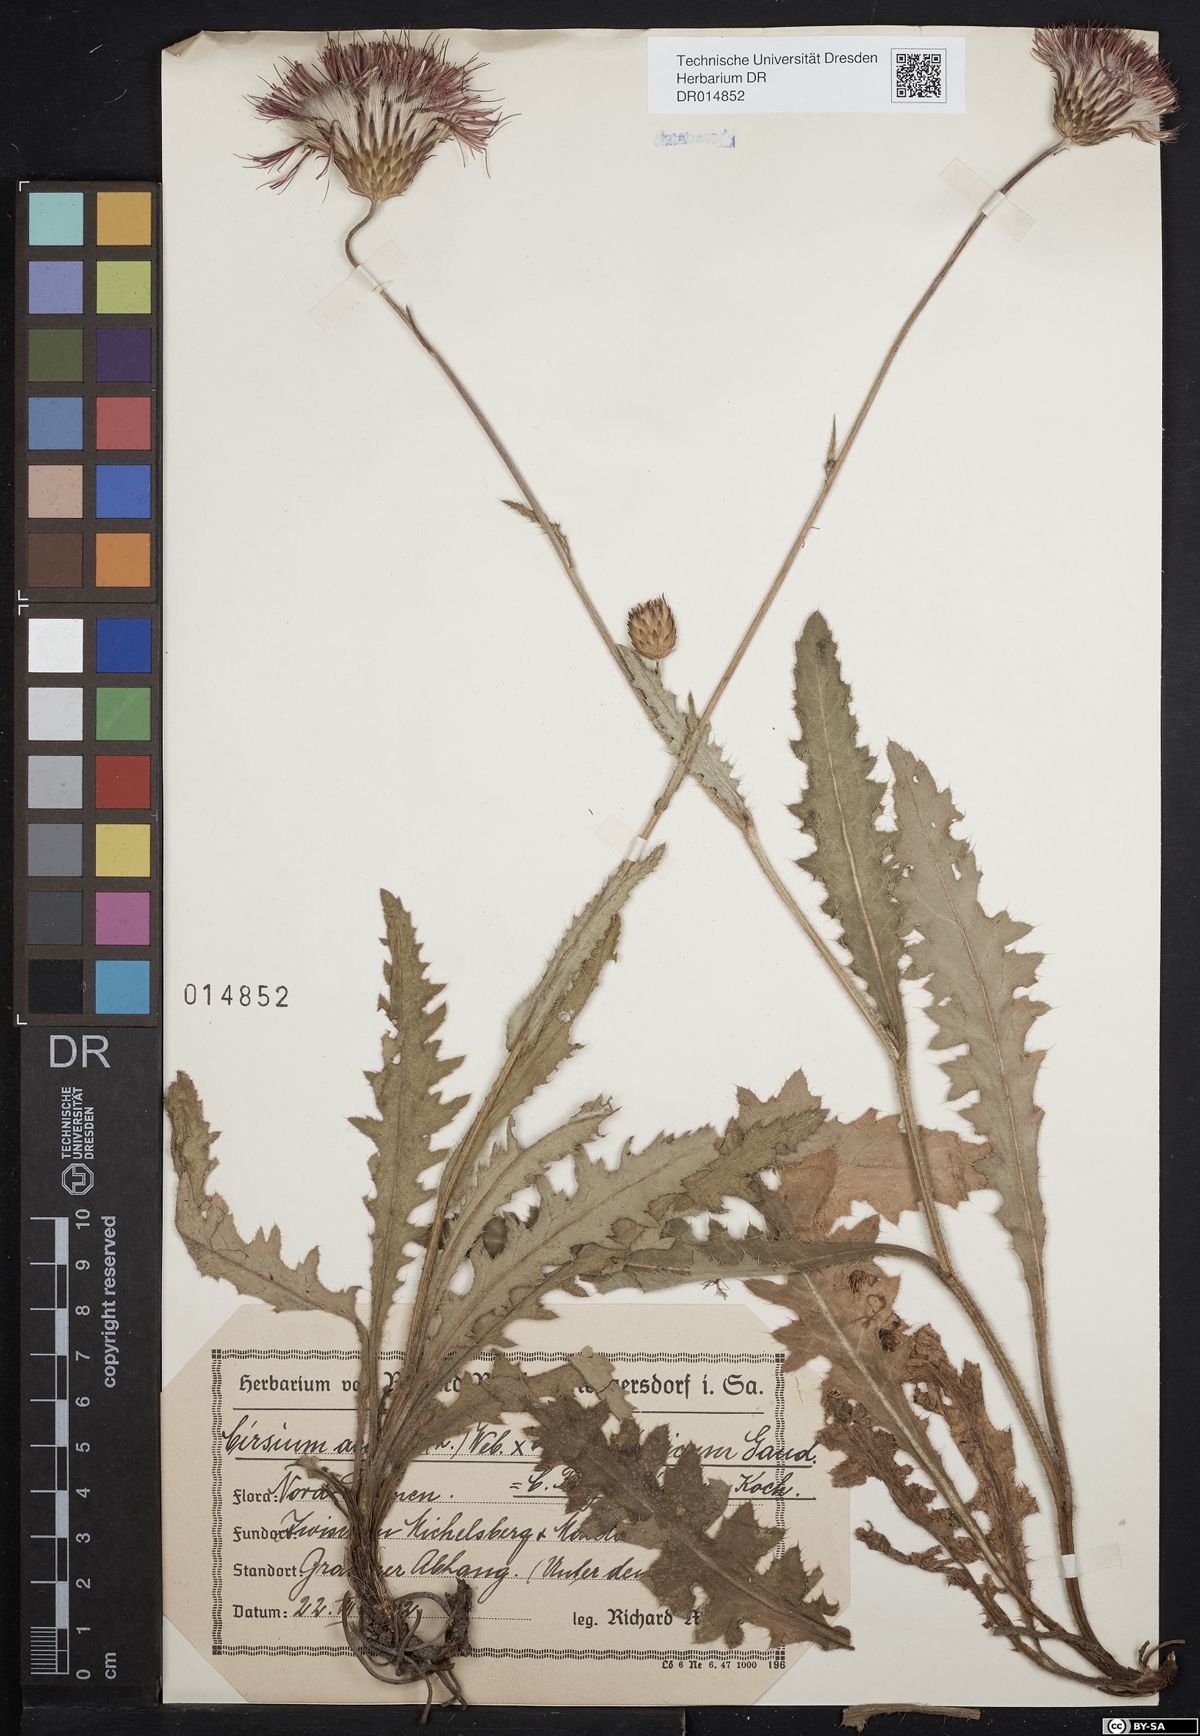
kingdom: Plantae
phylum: Tracheophyta
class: Magnoliopsida
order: Asterales
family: Asteraceae
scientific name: Asteraceae
